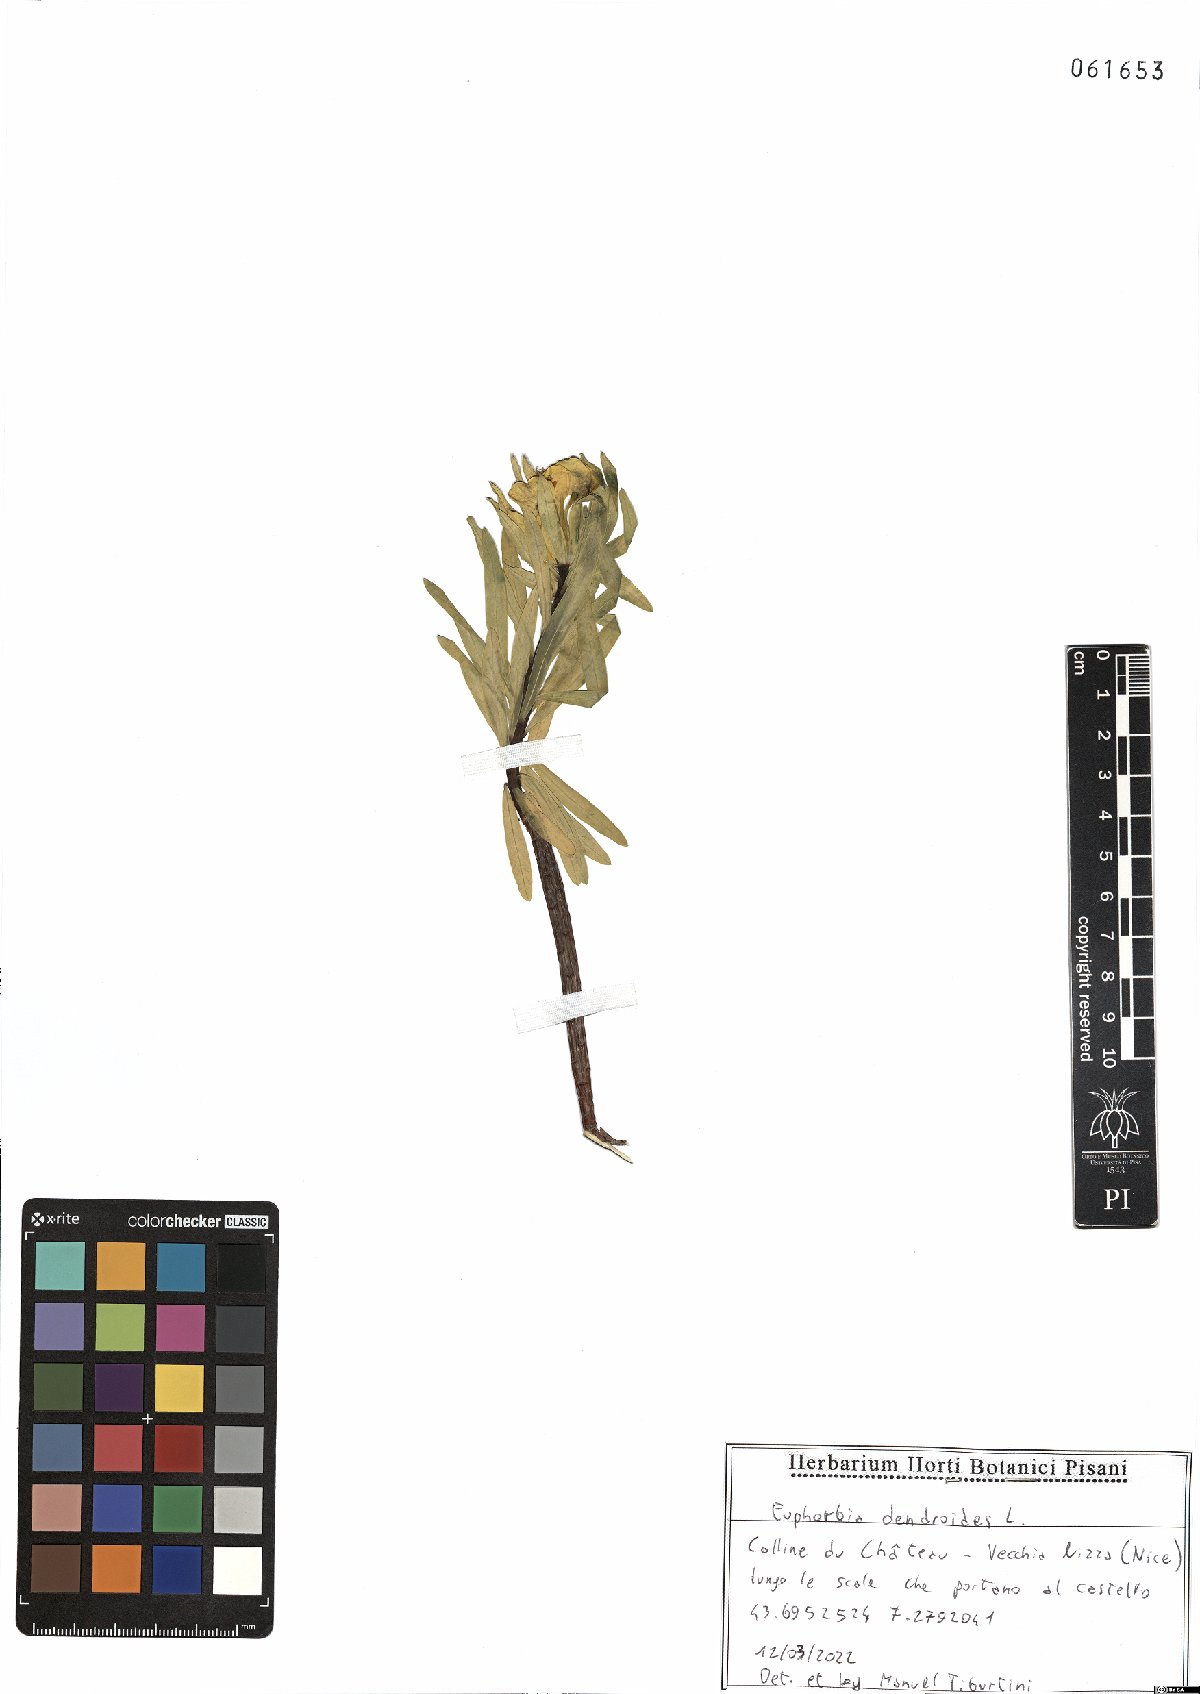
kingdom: Plantae
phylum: Tracheophyta
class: Magnoliopsida
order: Malpighiales
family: Euphorbiaceae
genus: Euphorbia
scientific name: Euphorbia dendroides
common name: Tree spurge
